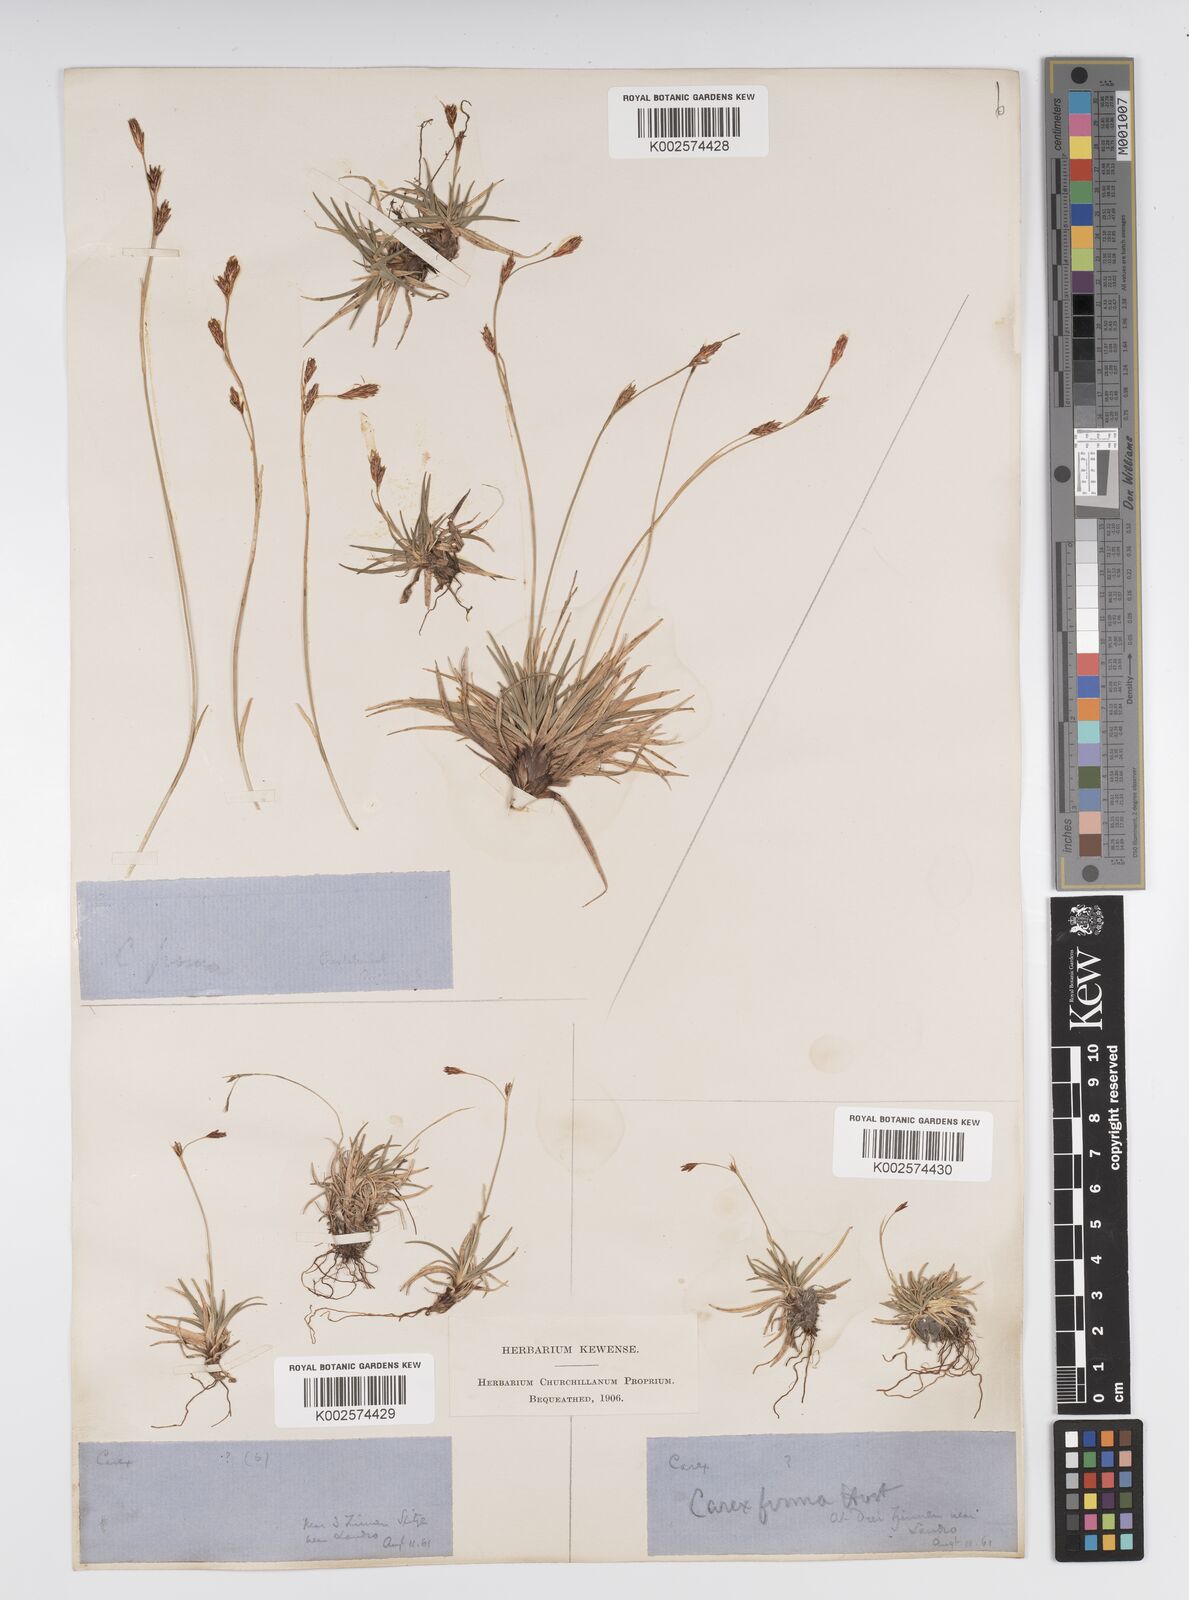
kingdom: Plantae
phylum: Tracheophyta
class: Liliopsida
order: Poales
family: Cyperaceae
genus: Carex
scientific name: Carex firma
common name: Dwarf pillow sedge
